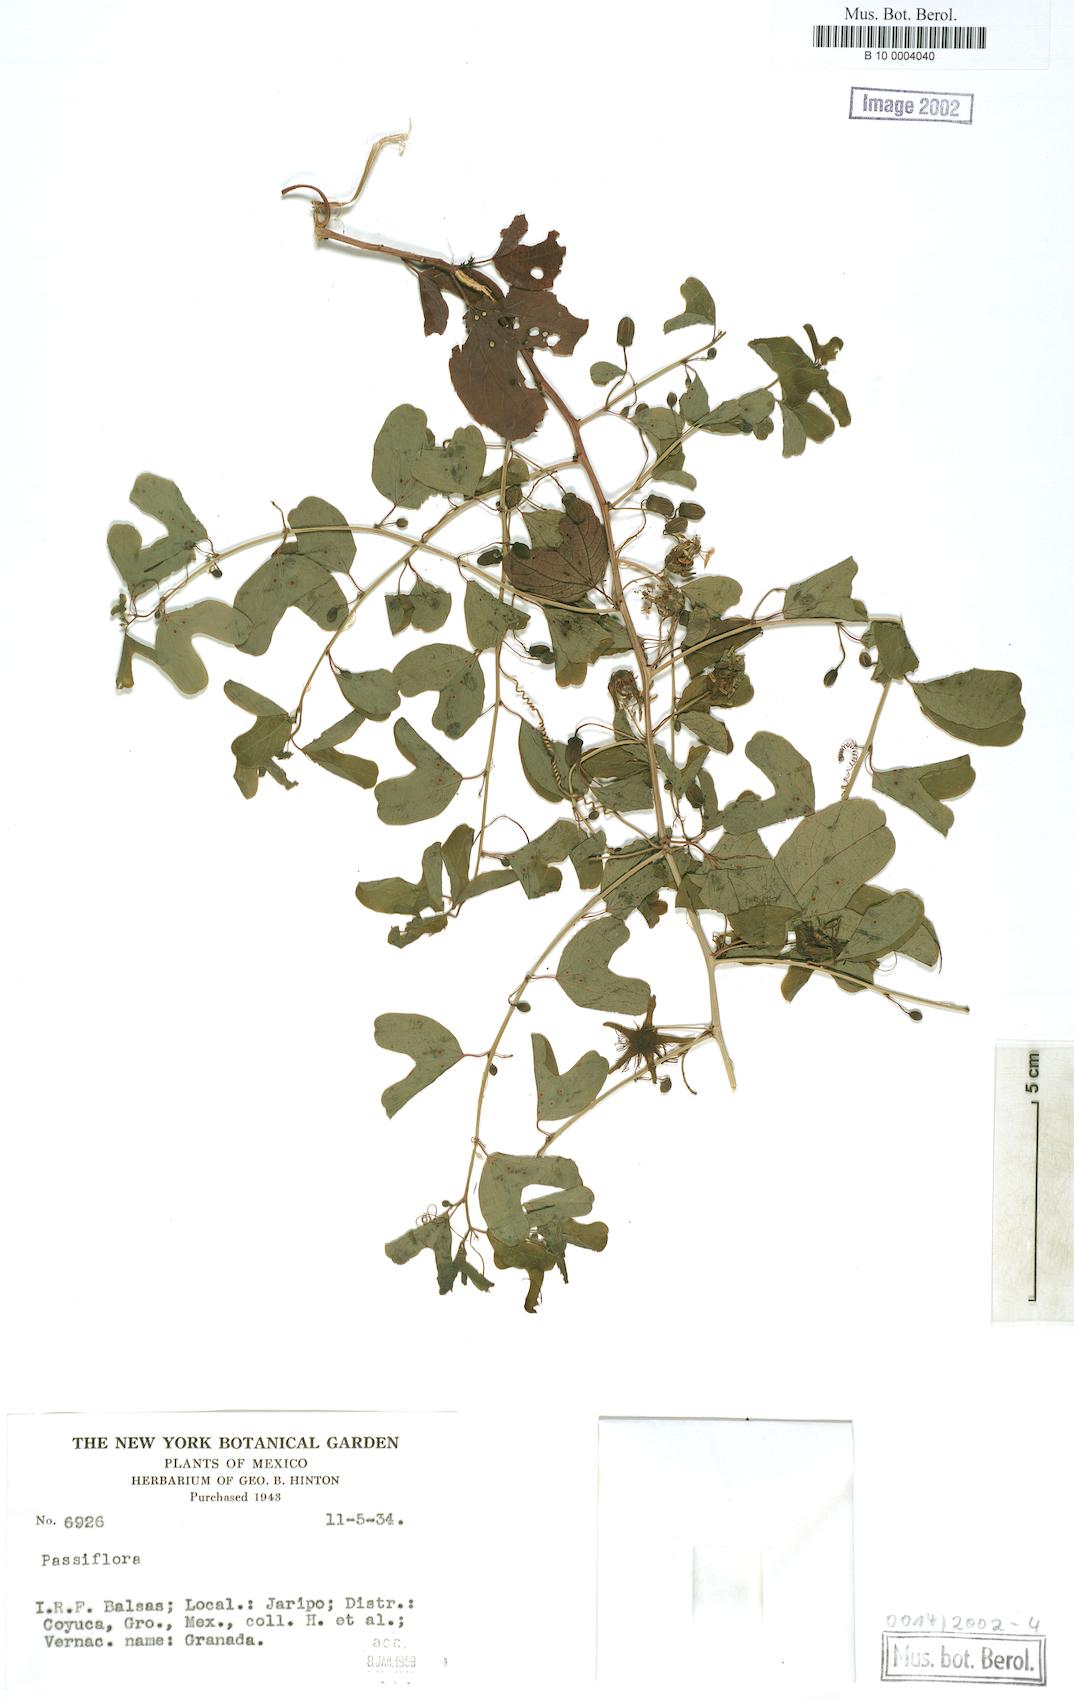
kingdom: Plantae
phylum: Tracheophyta
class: Magnoliopsida
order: Malpighiales
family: Passifloraceae
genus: Passiflora
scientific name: Passiflora
